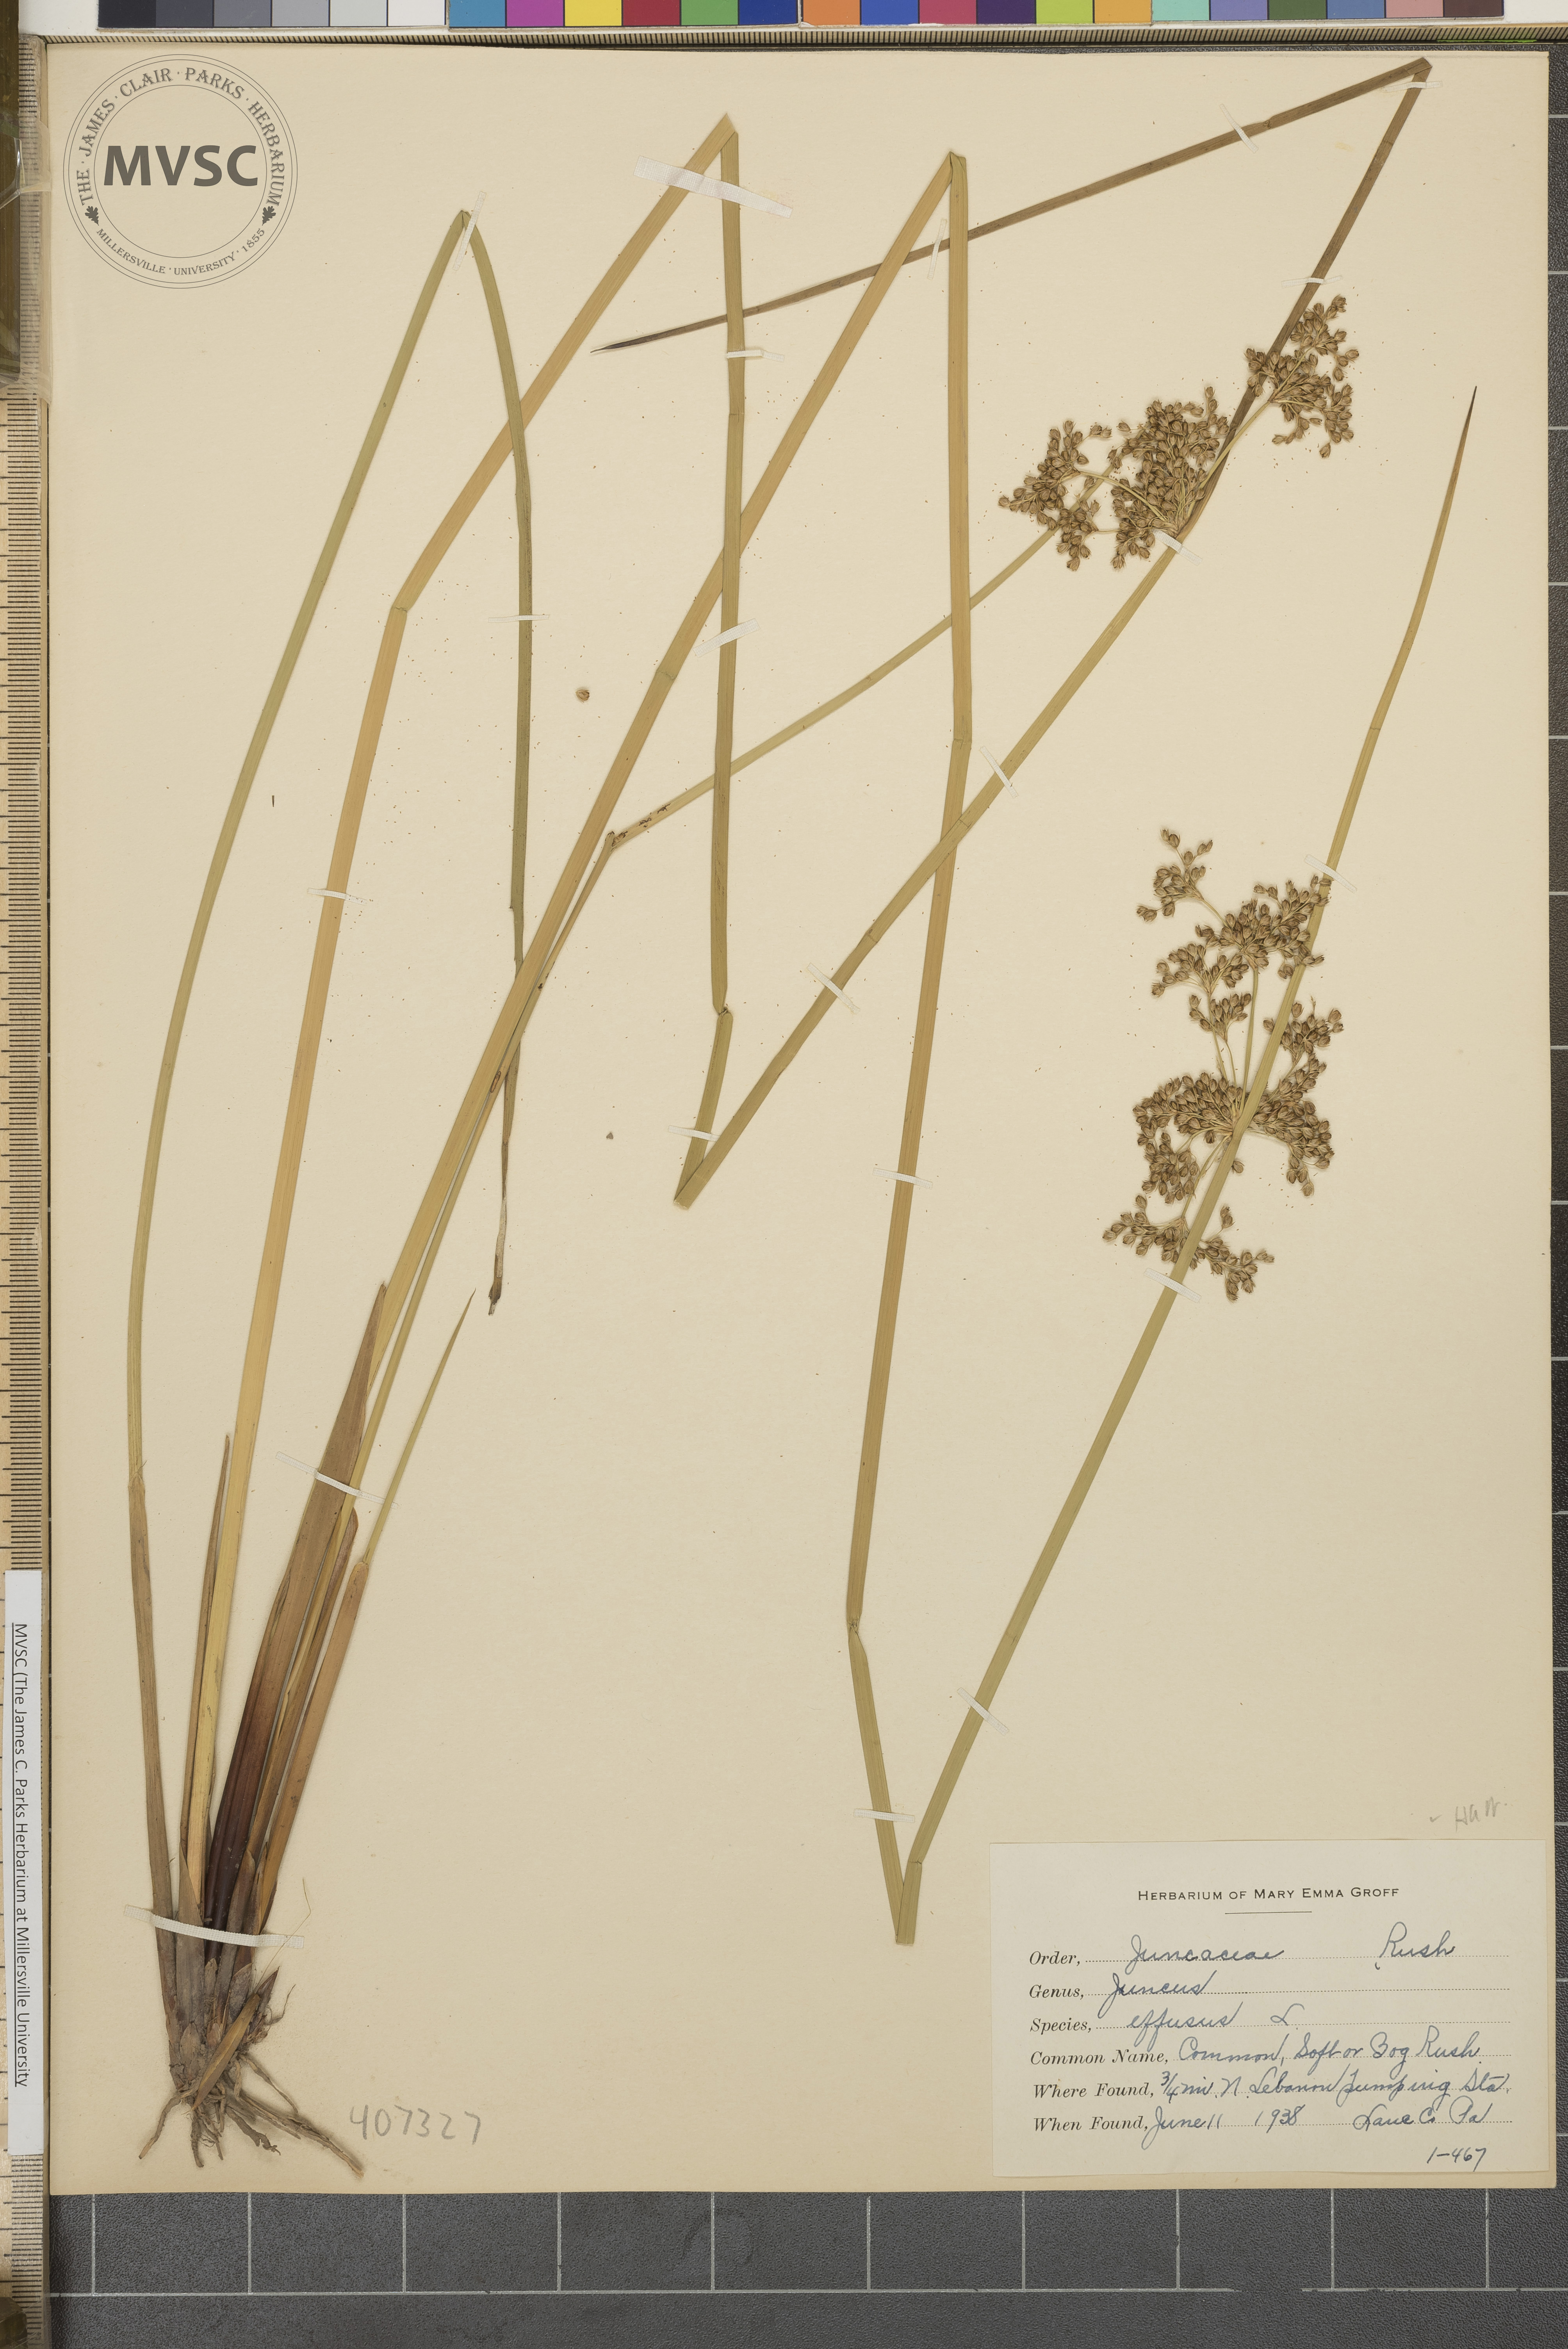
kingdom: Plantae
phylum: Tracheophyta
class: Liliopsida
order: Poales
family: Juncaceae
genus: Juncus
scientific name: Juncus effusus
